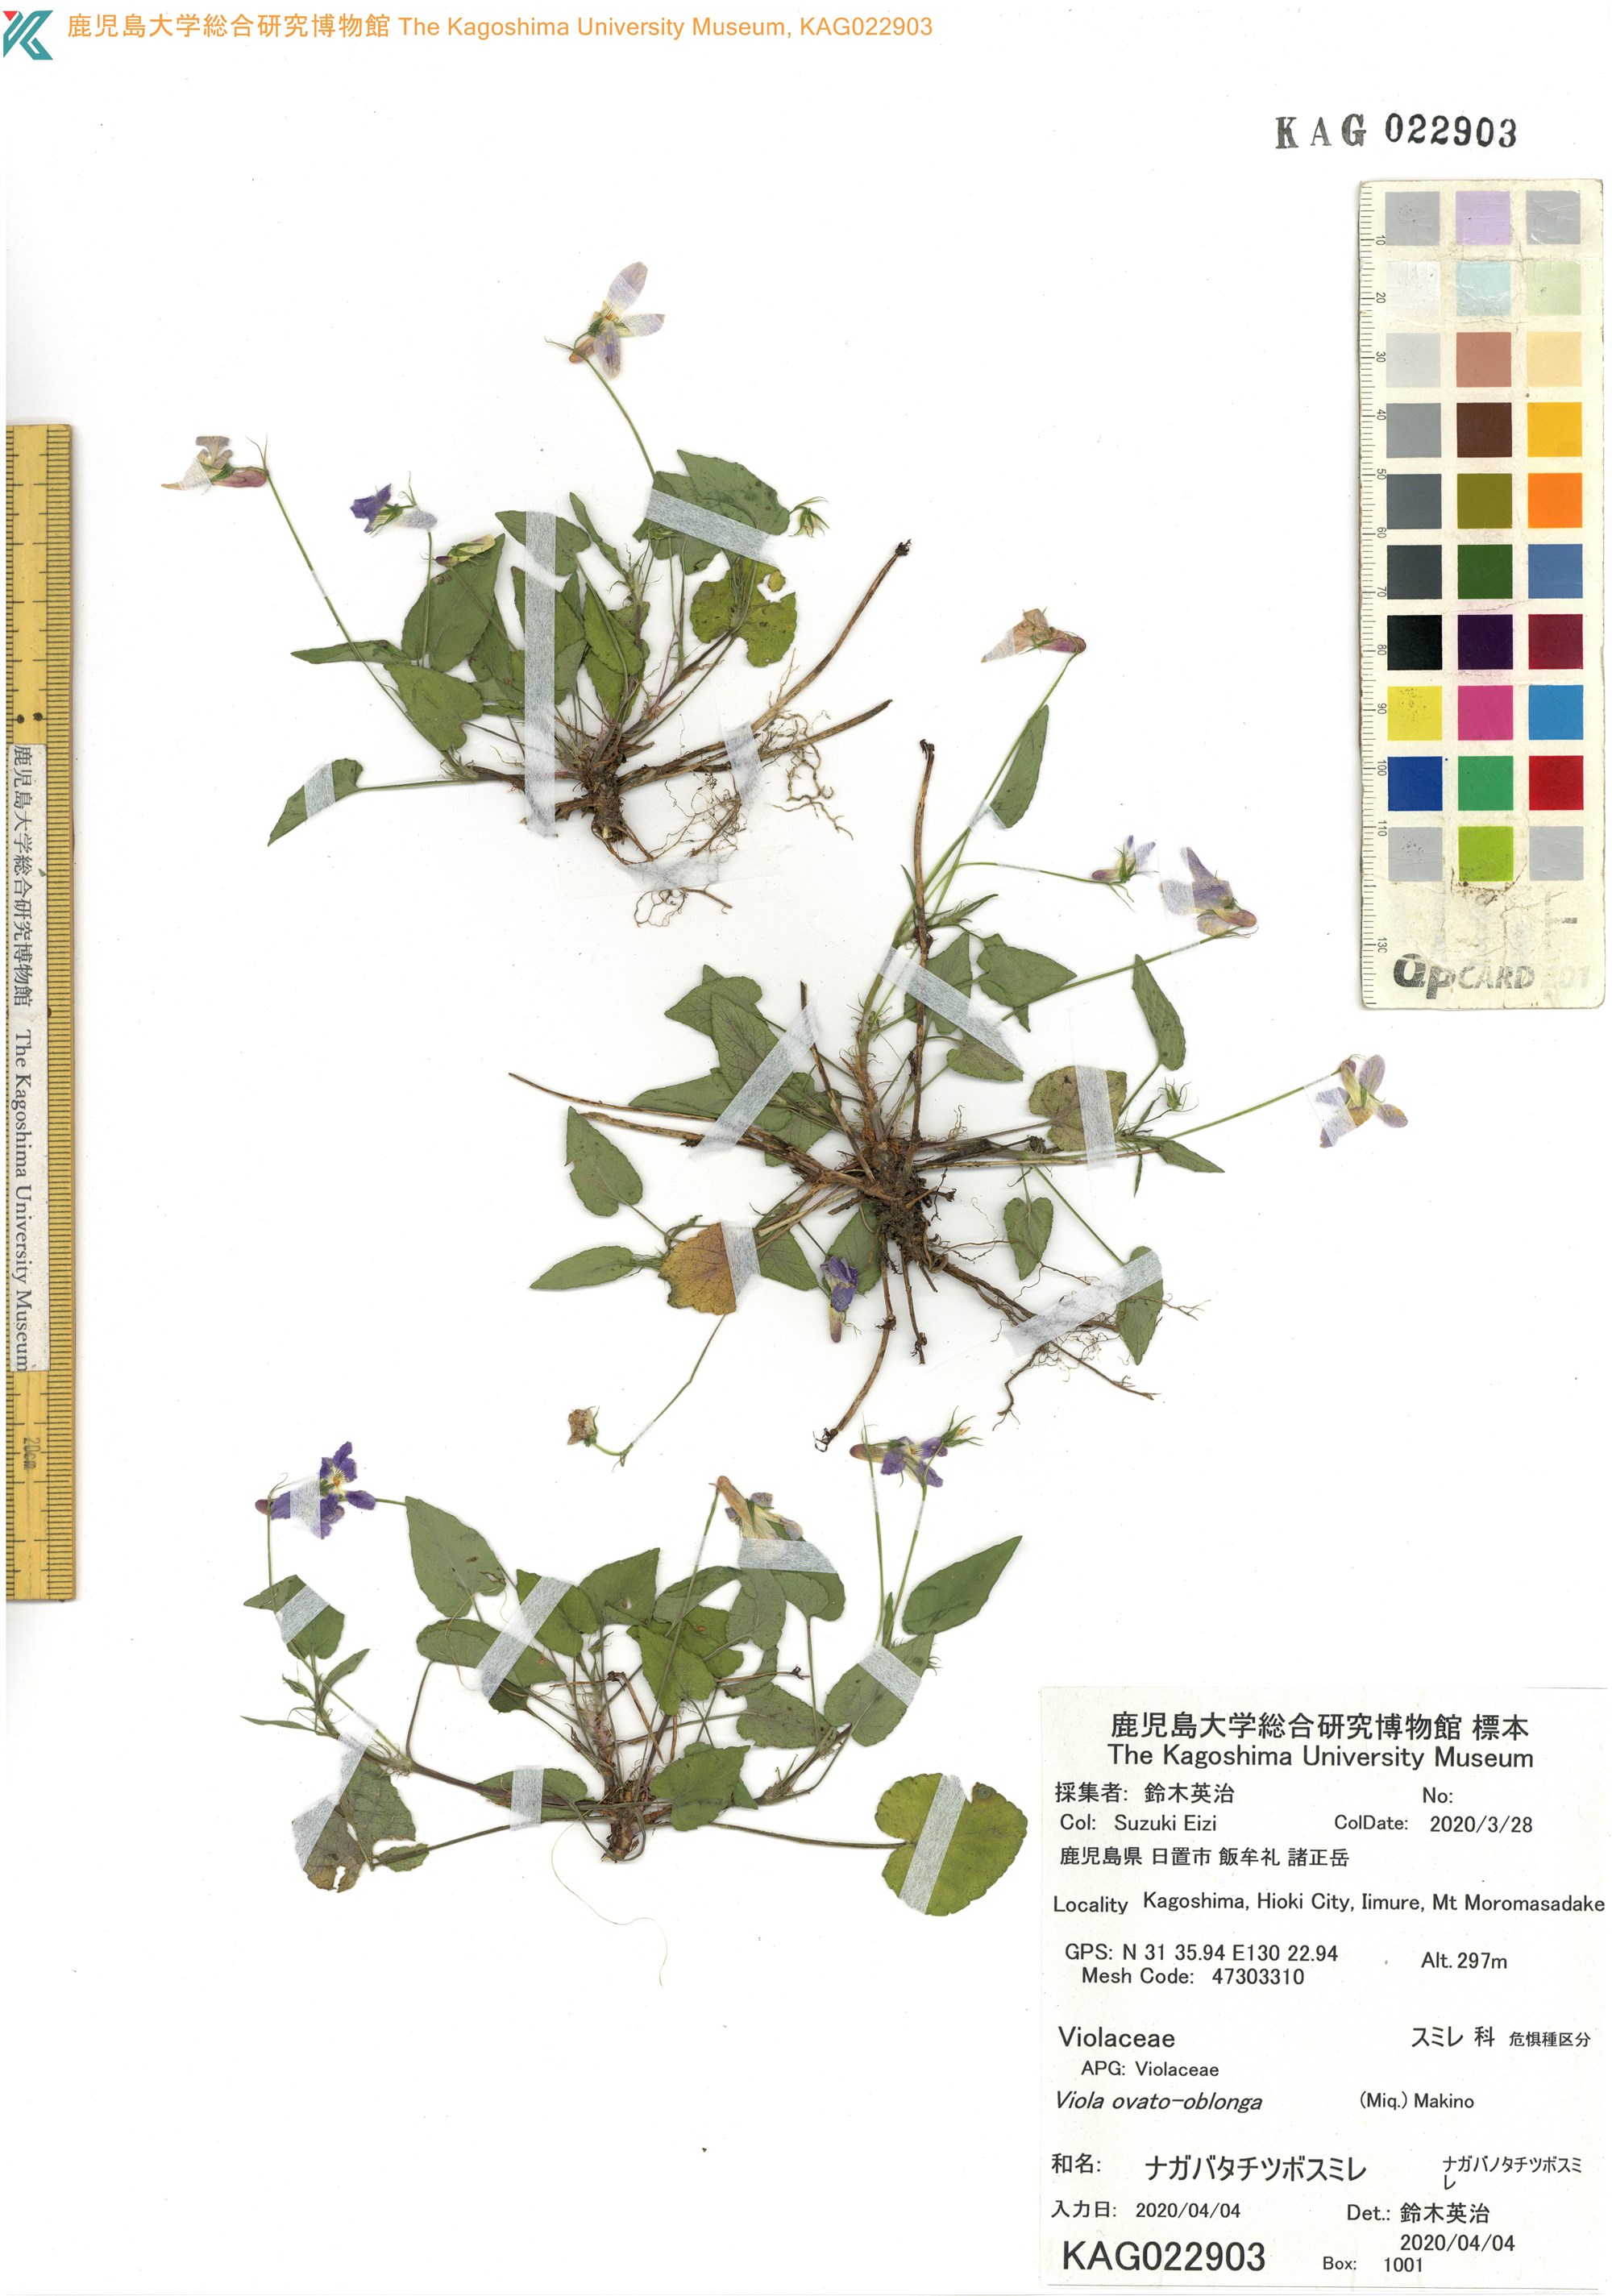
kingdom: Plantae
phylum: Tracheophyta
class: Magnoliopsida
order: Malpighiales
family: Violaceae
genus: Viola
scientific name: Viola ovatooblonga
